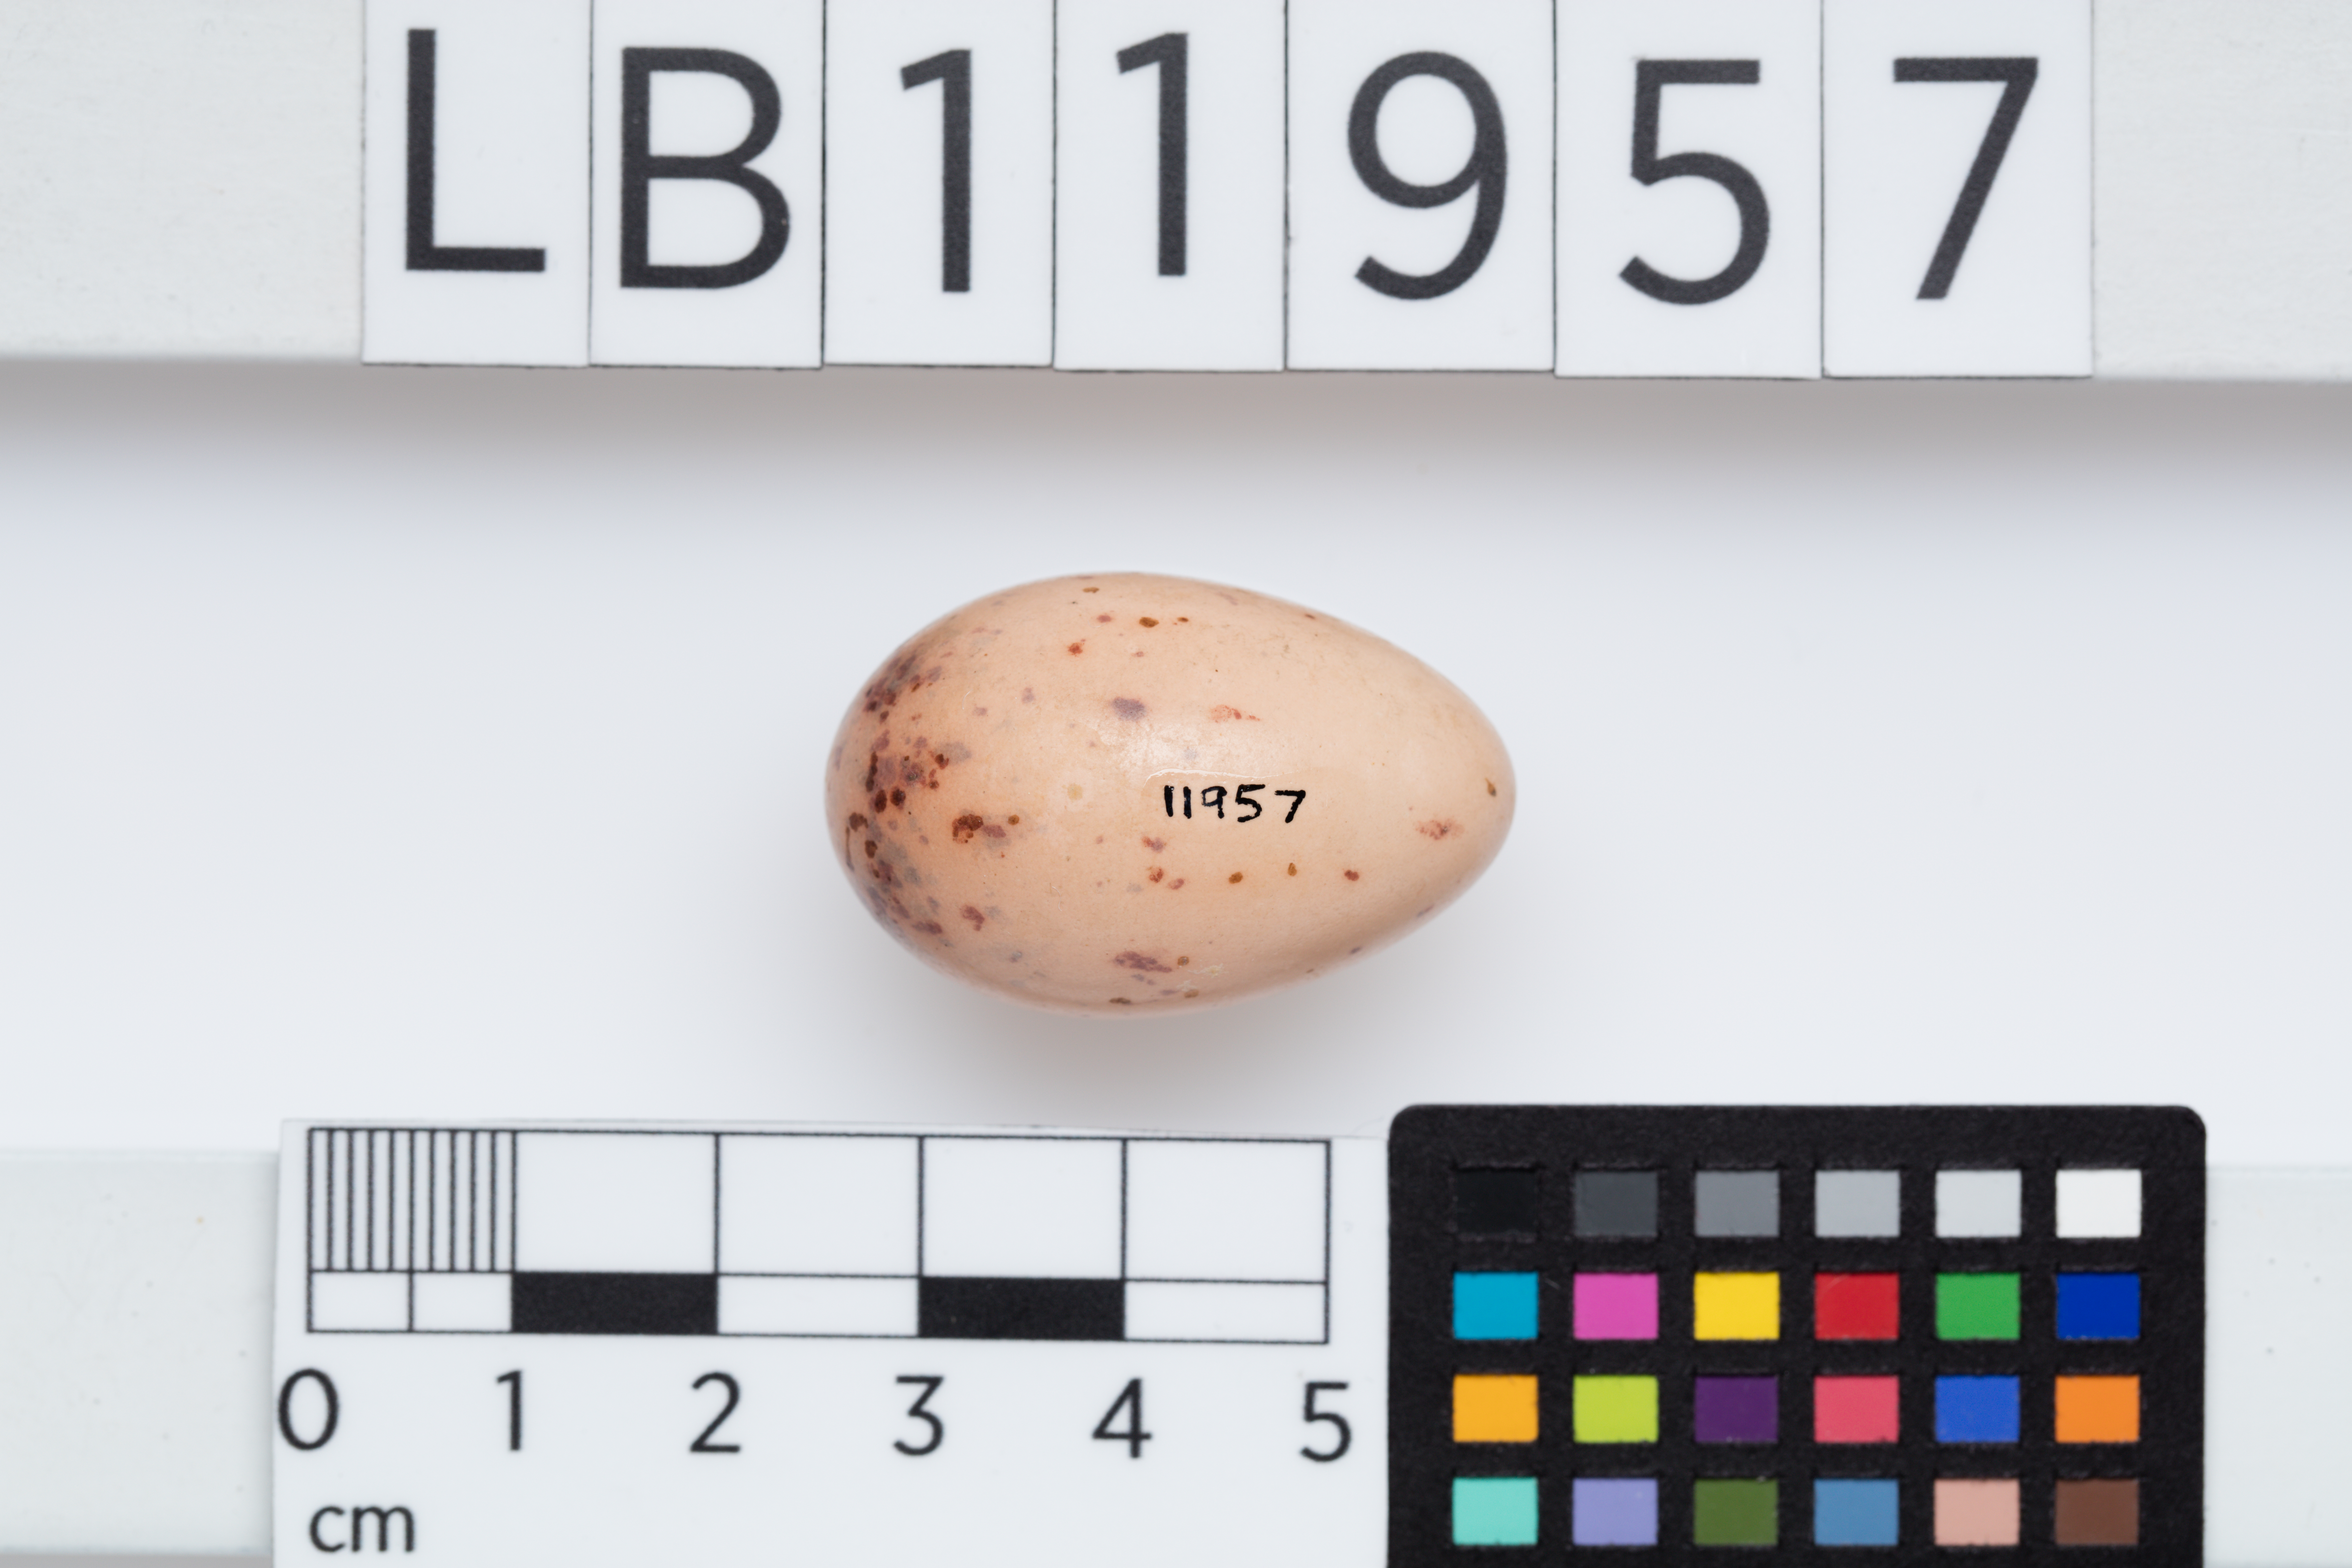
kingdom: Animalia
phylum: Chordata
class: Aves
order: Passeriformes
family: Meliphagidae
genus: Philemon
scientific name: Philemon corniculatus
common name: Noisy friarbird
